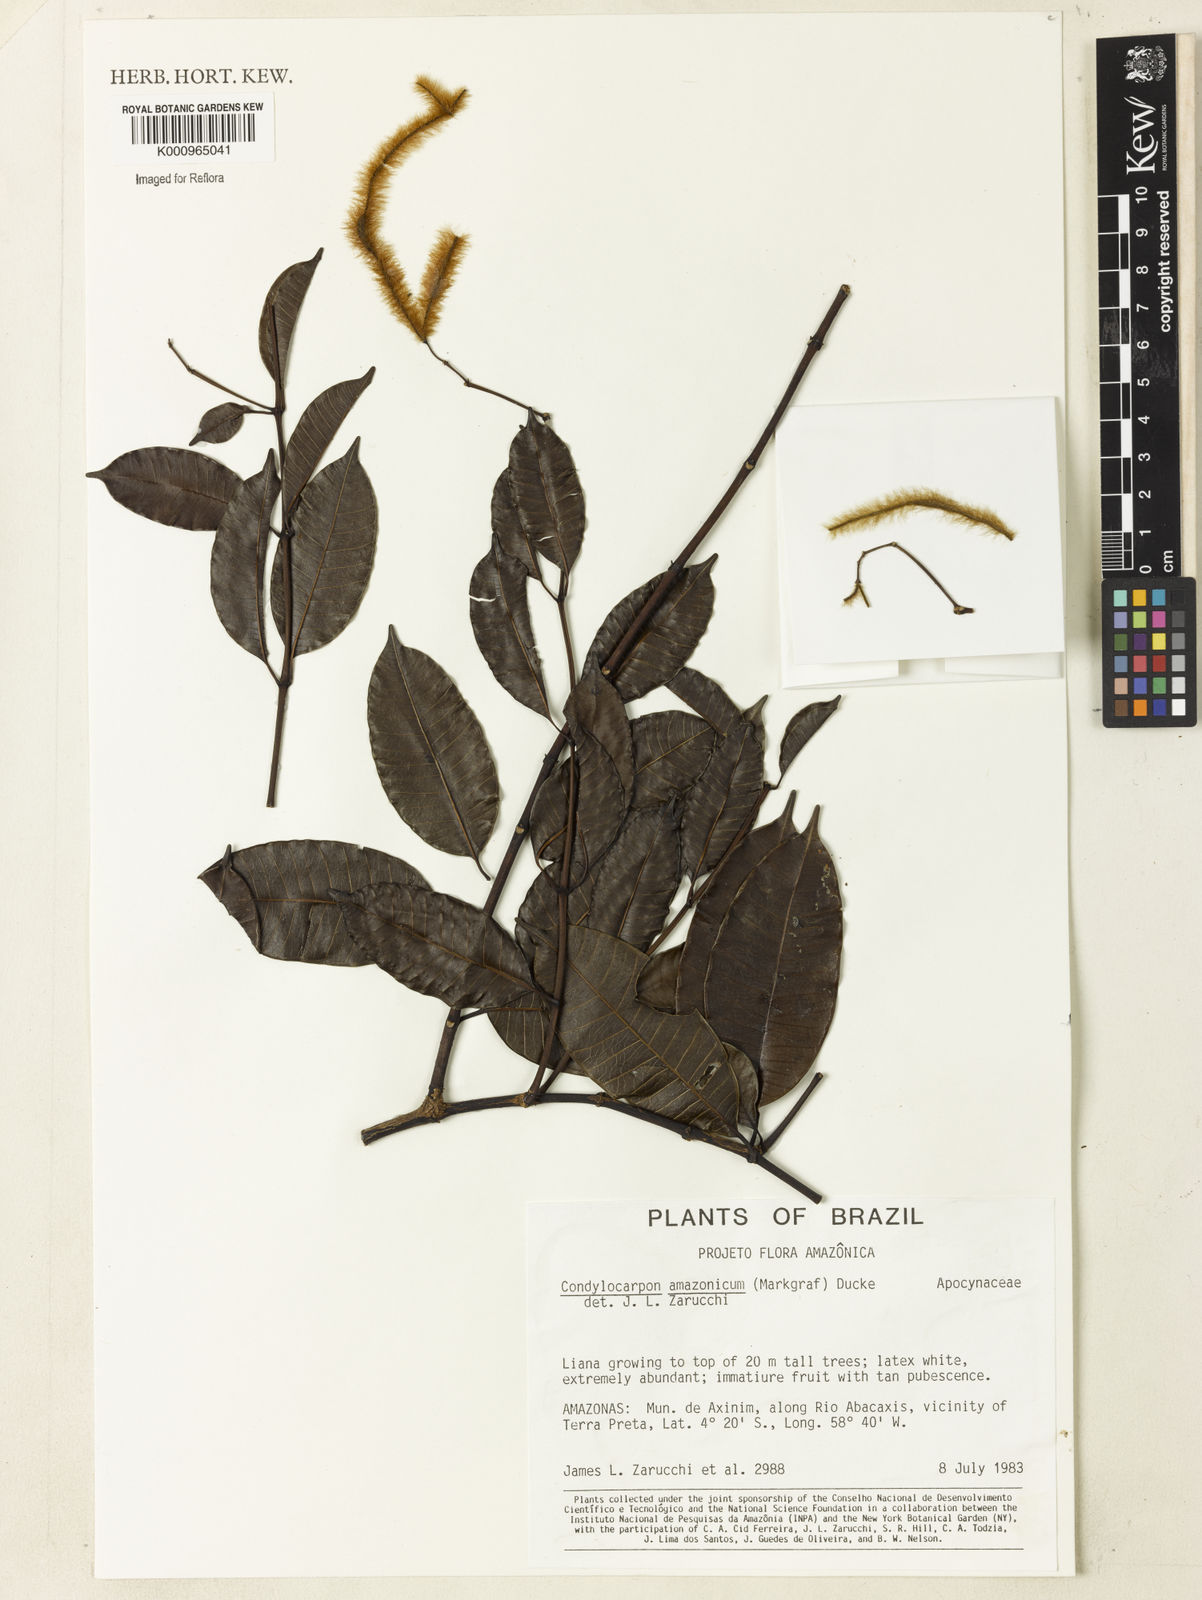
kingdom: Plantae
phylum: Tracheophyta
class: Magnoliopsida
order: Gentianales
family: Apocynaceae
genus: Condylocarpon
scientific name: Condylocarpon amazonicum
